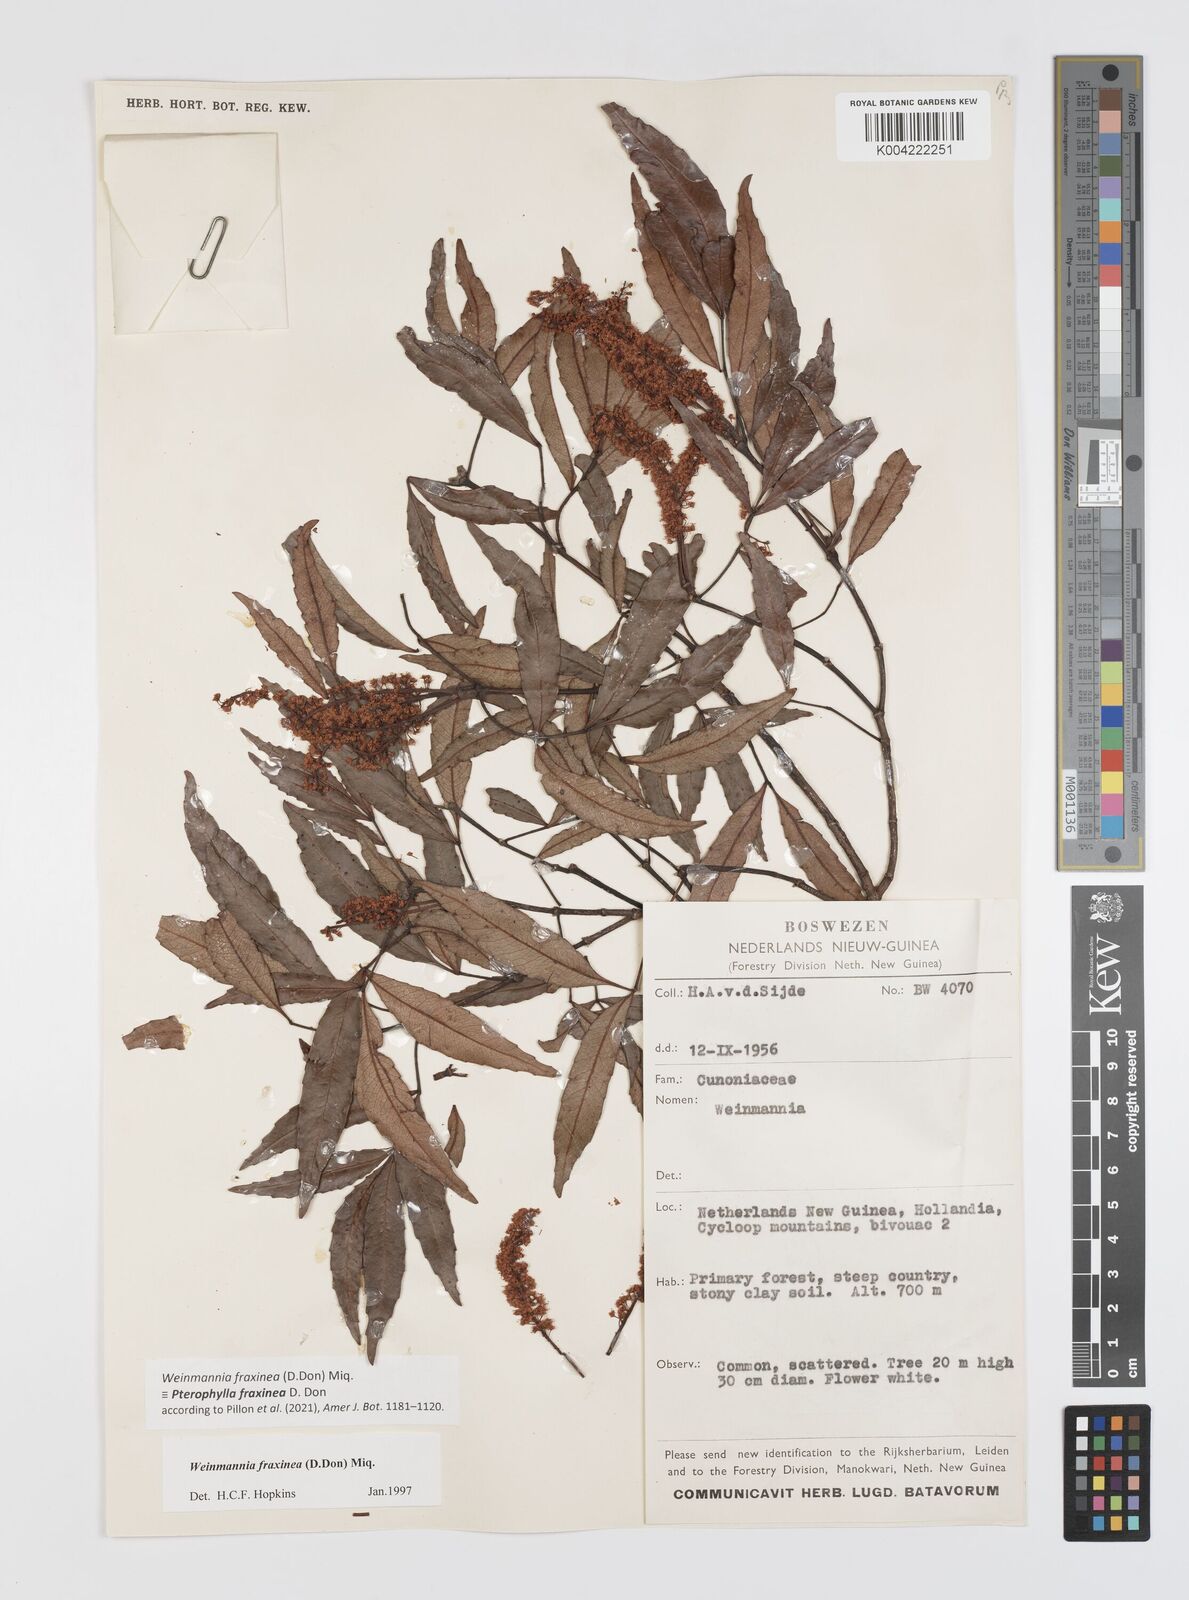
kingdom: Plantae
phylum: Tracheophyta
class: Magnoliopsida
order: Oxalidales
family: Cunoniaceae
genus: Pterophylla
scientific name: Pterophylla fraxinea
